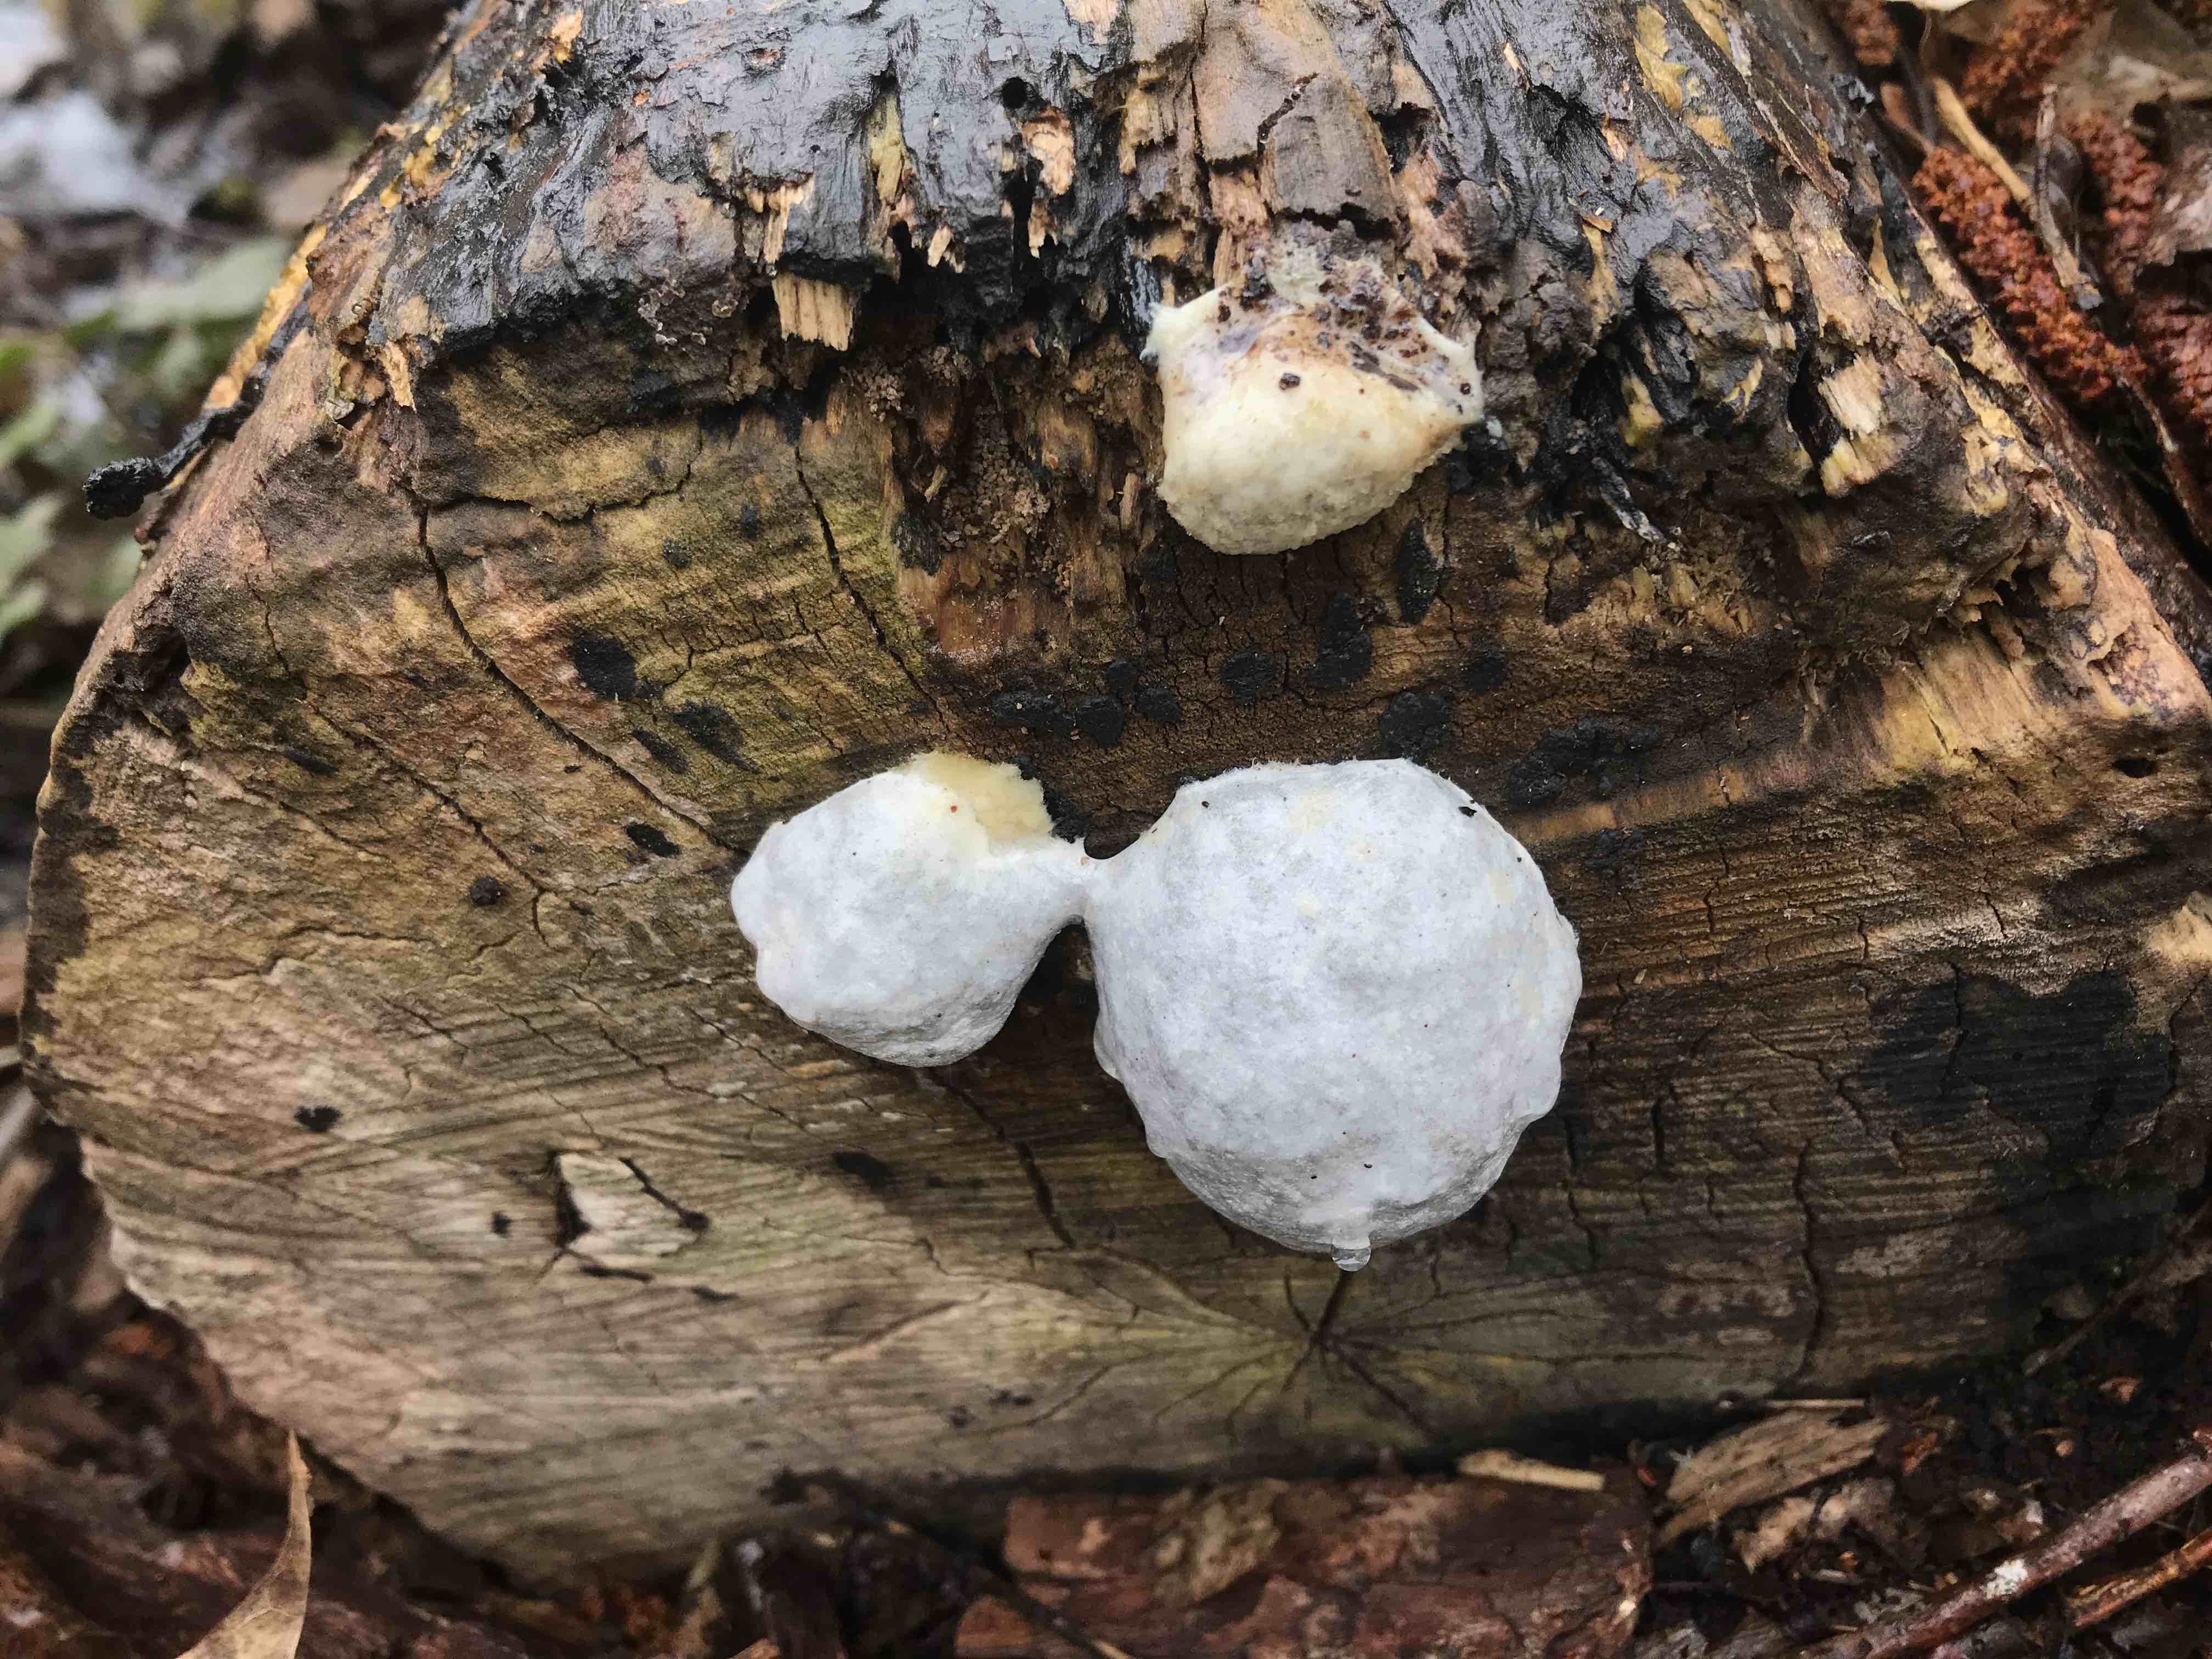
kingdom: Protozoa
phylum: Mycetozoa
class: Myxomycetes
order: Cribrariales
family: Tubiferaceae
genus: Reticularia
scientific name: Reticularia lycoperdon
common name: skinnende støvpude
